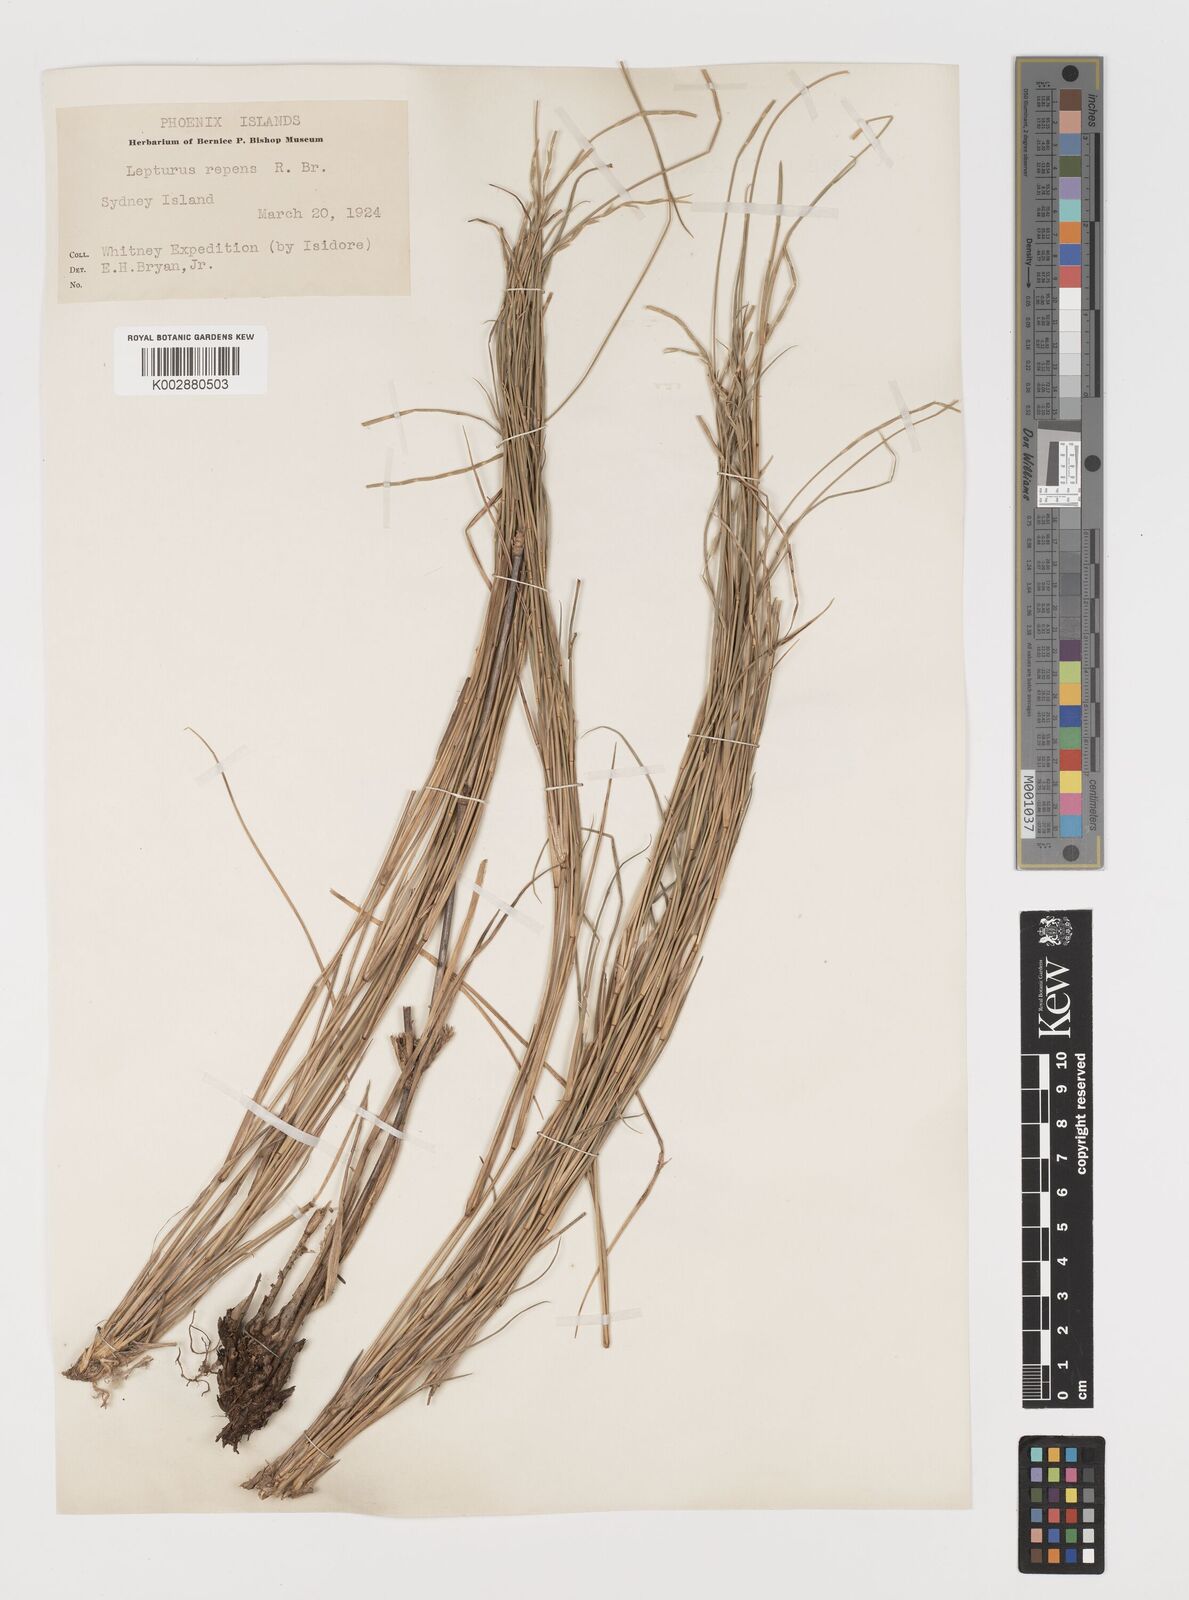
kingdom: Plantae
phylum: Tracheophyta
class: Liliopsida
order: Poales
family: Poaceae
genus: Lepturus
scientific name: Lepturus repens
